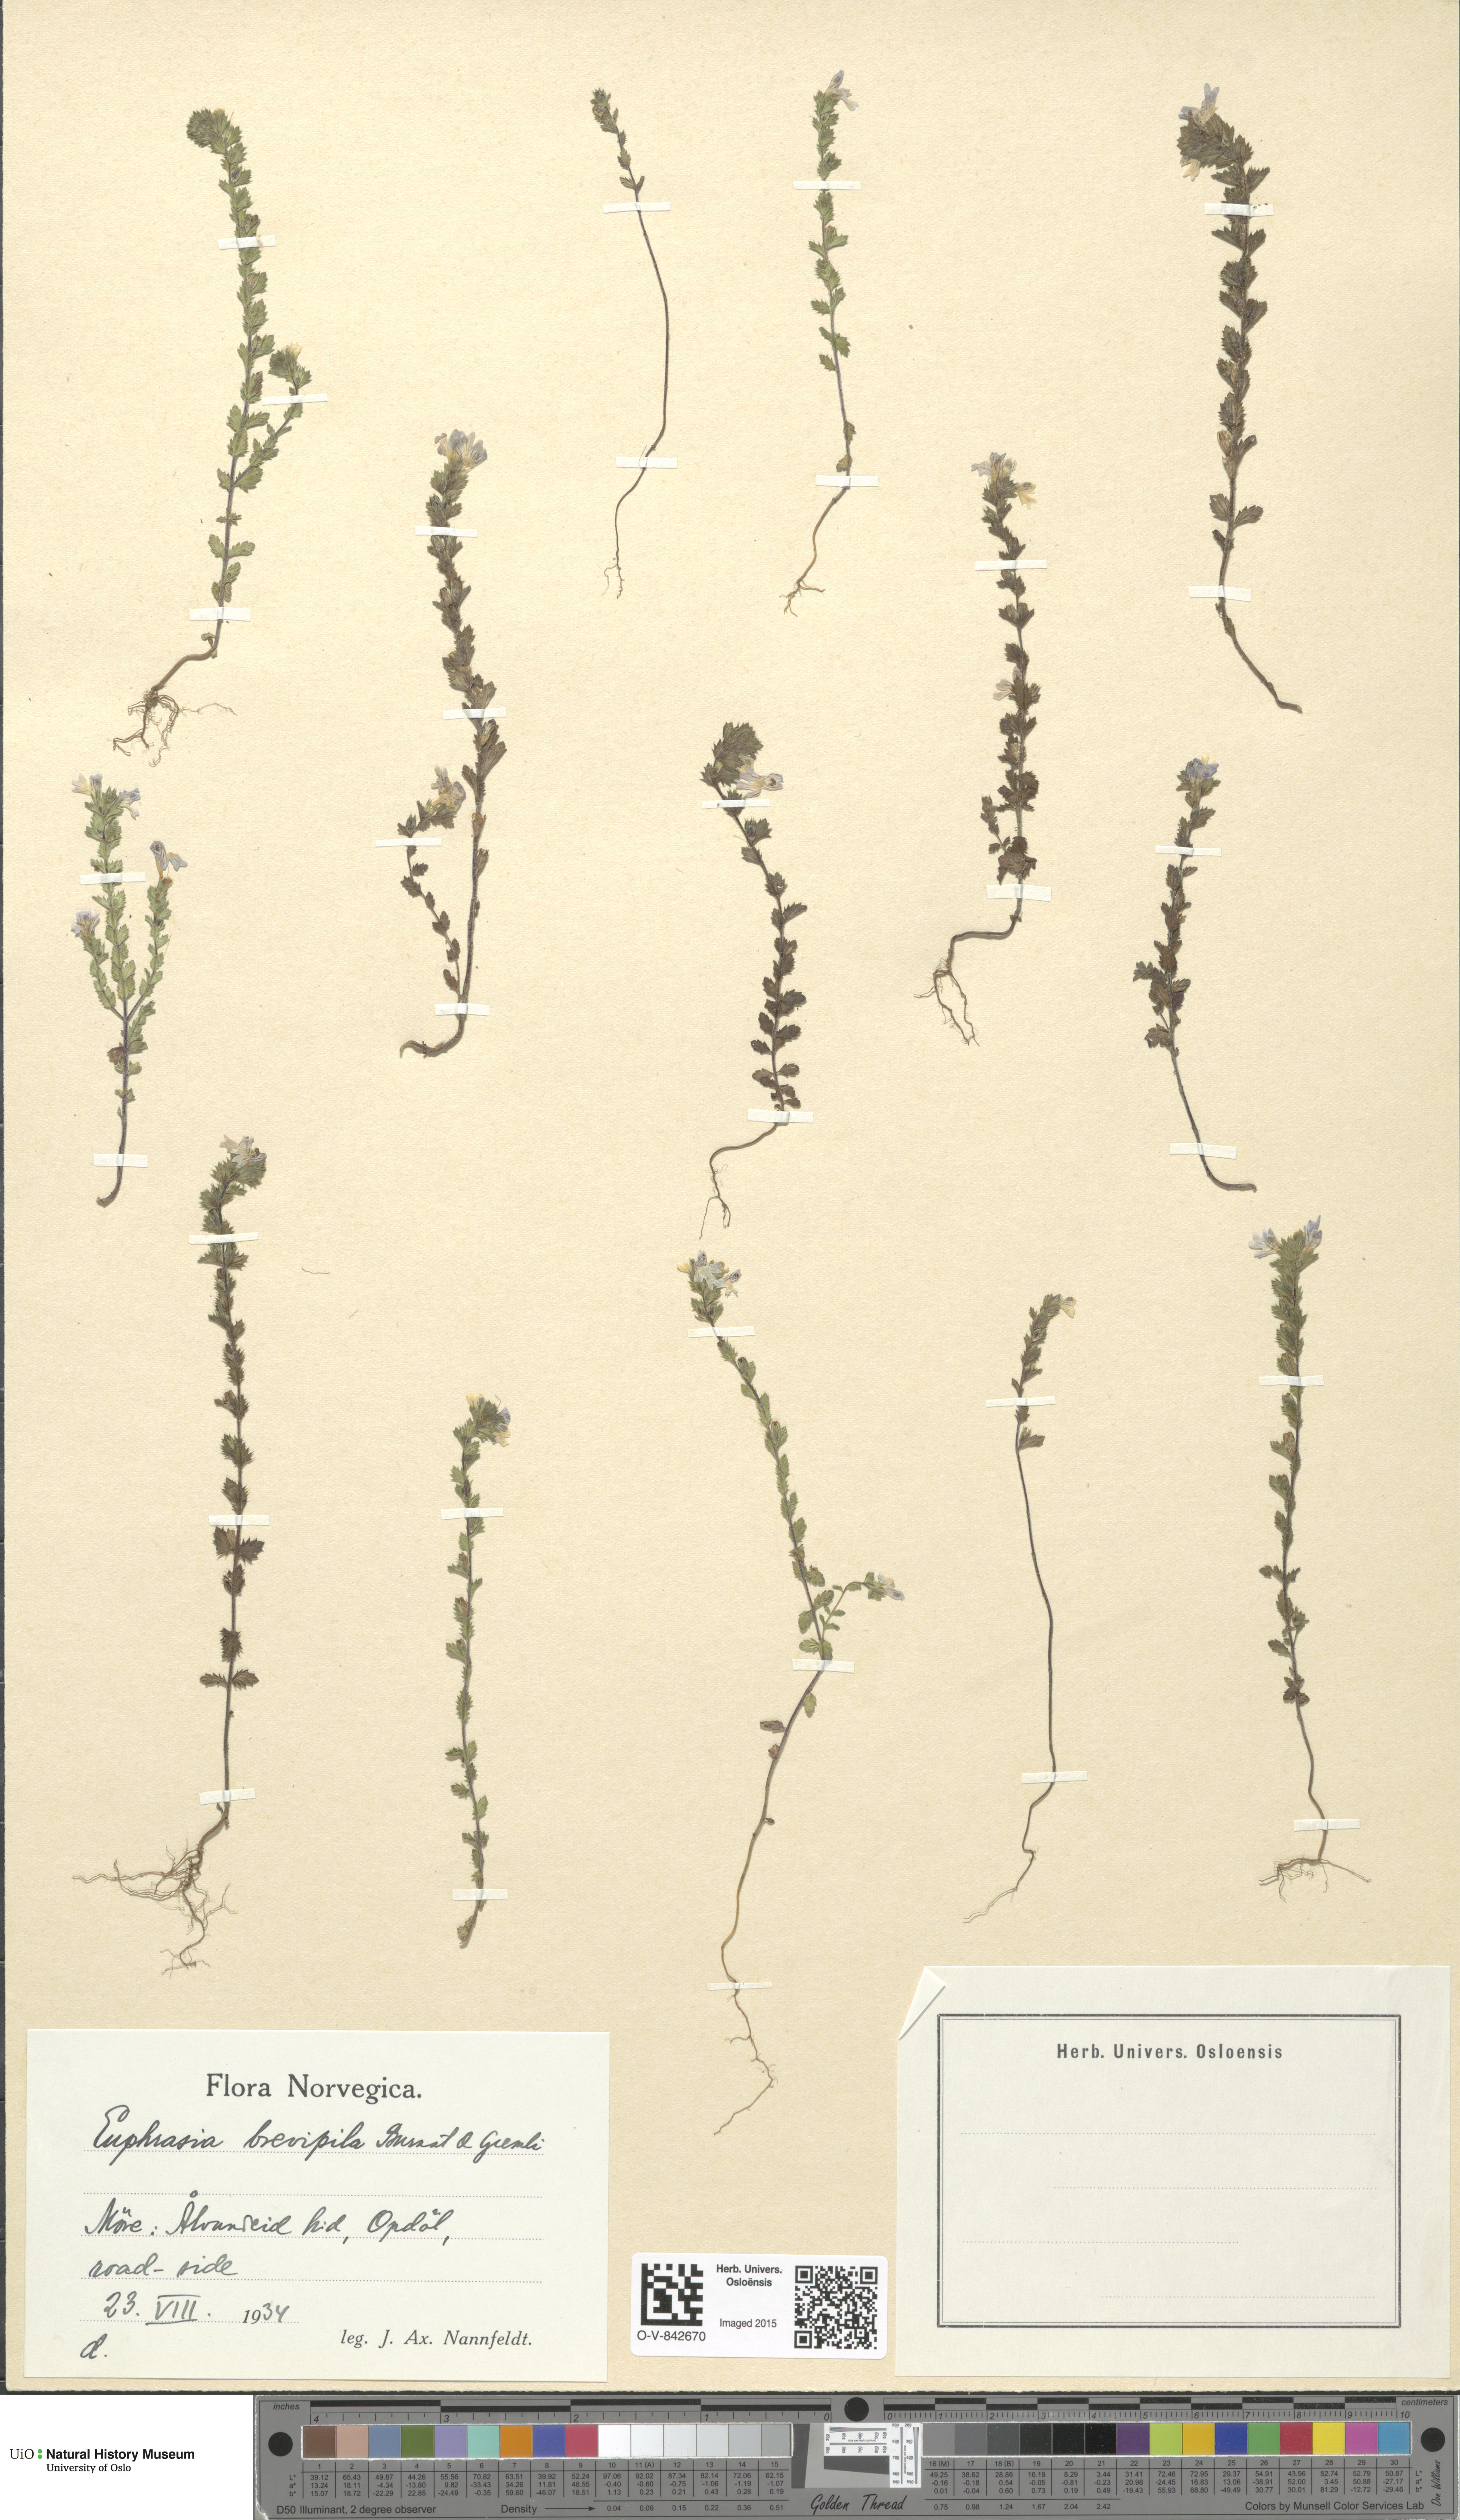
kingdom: Plantae
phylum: Tracheophyta
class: Magnoliopsida
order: Lamiales
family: Orobanchaceae
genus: Euphrasia
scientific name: Euphrasia vernalis
